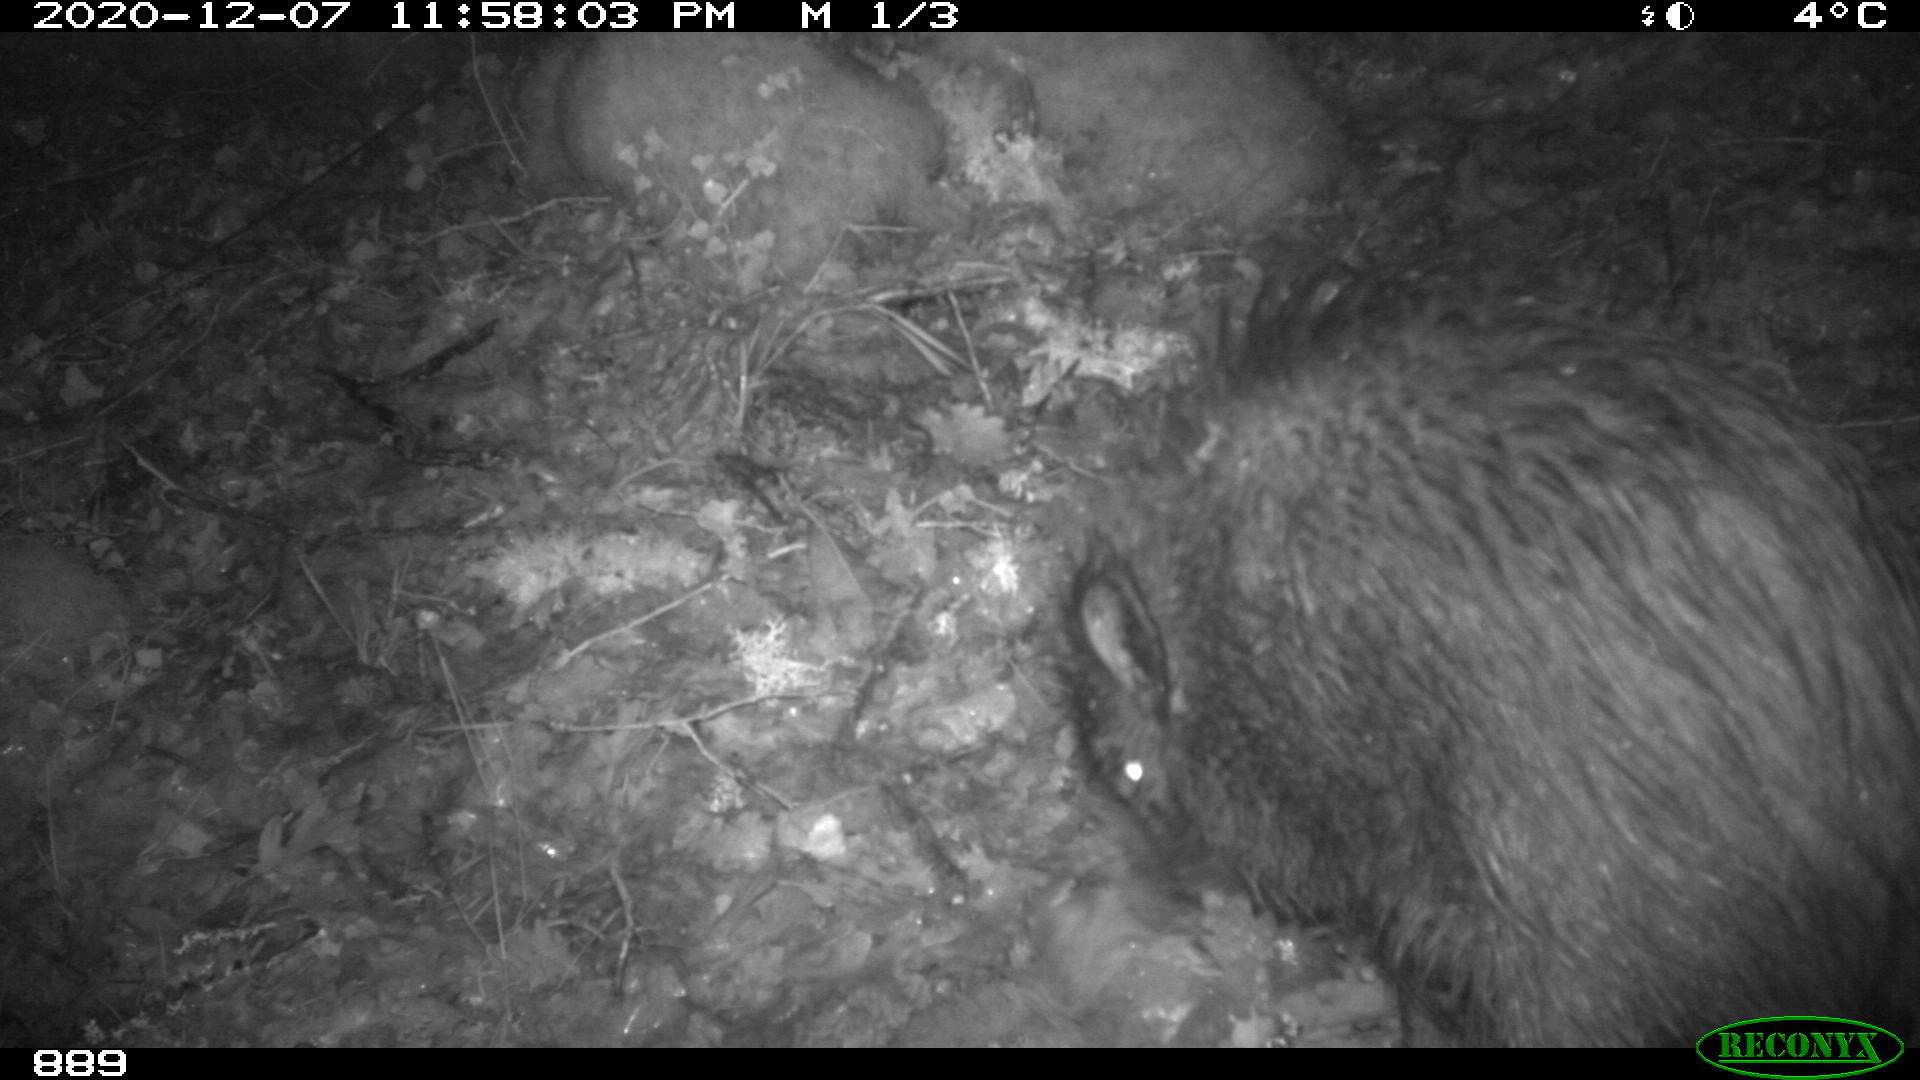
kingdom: Animalia
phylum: Chordata
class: Mammalia
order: Artiodactyla
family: Suidae
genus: Sus
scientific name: Sus scrofa
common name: Wild boar
